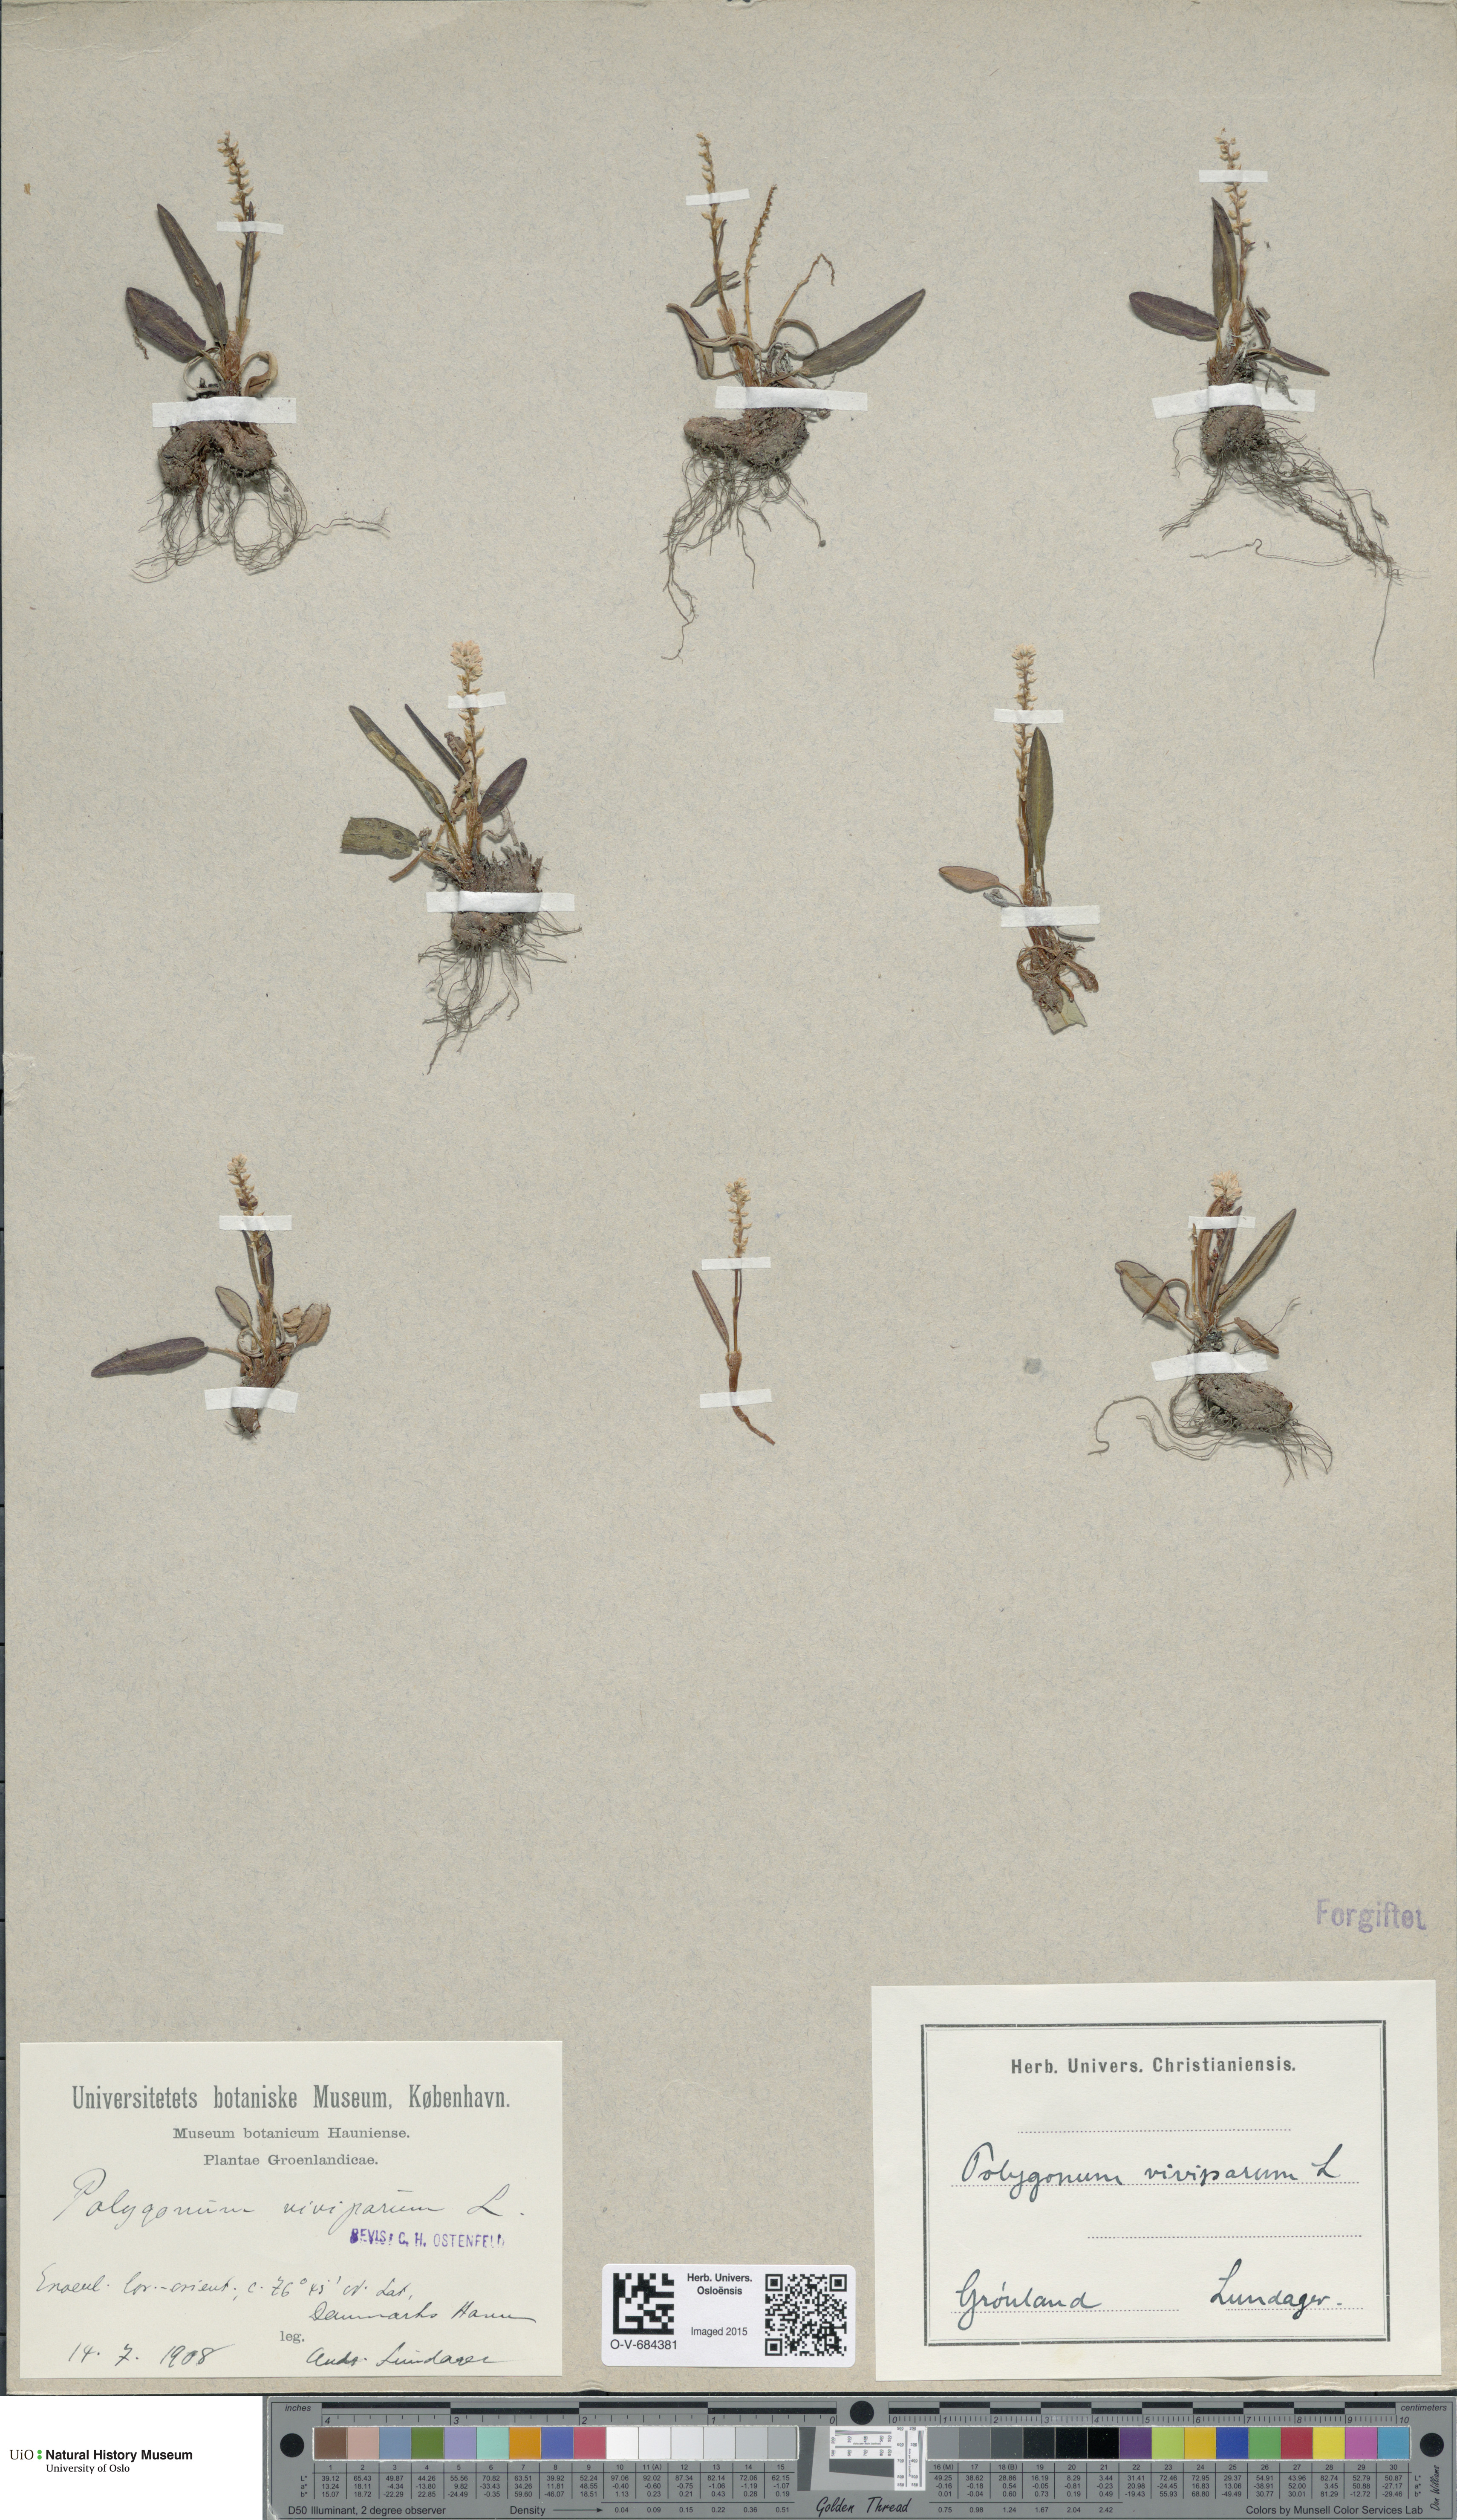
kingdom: Plantae
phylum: Tracheophyta
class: Magnoliopsida
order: Caryophyllales
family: Polygonaceae
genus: Bistorta
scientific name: Bistorta vivipara
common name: Alpine bistort
